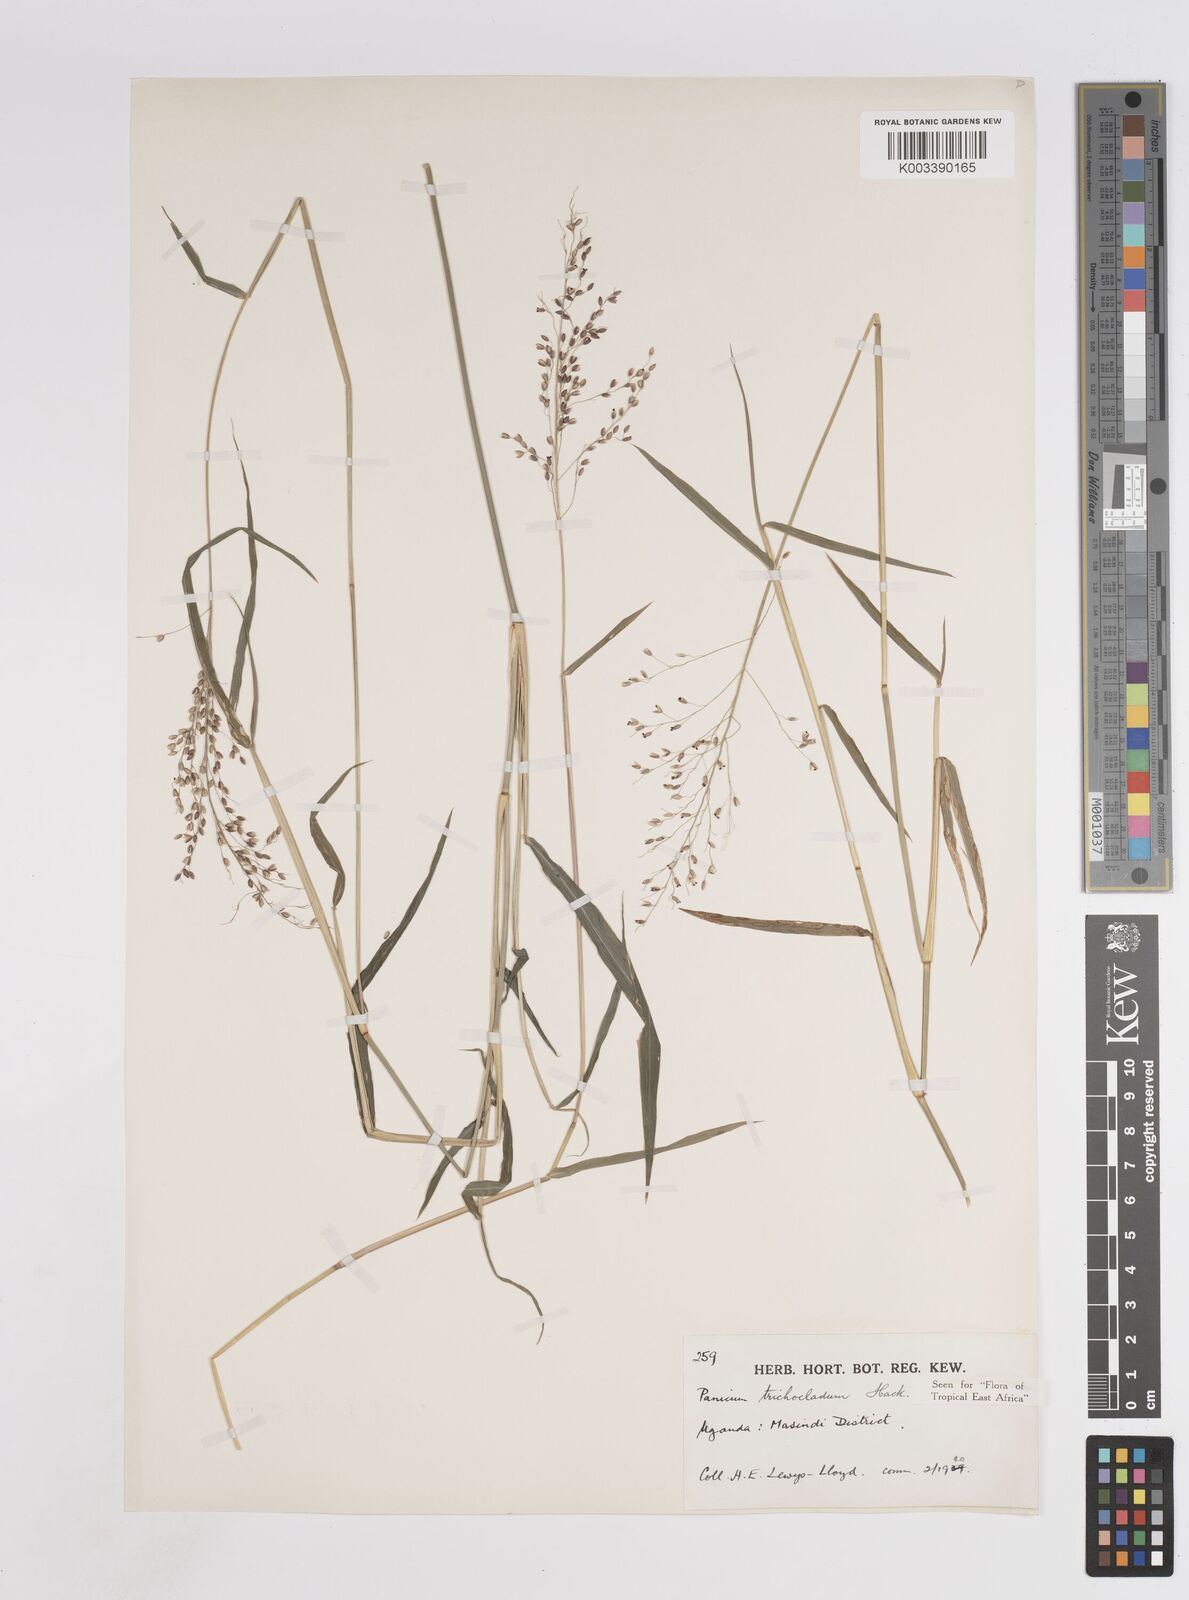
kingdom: Plantae
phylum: Tracheophyta
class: Liliopsida
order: Poales
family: Poaceae
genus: Panicum
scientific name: Panicum trichocladum
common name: Donkey grass
